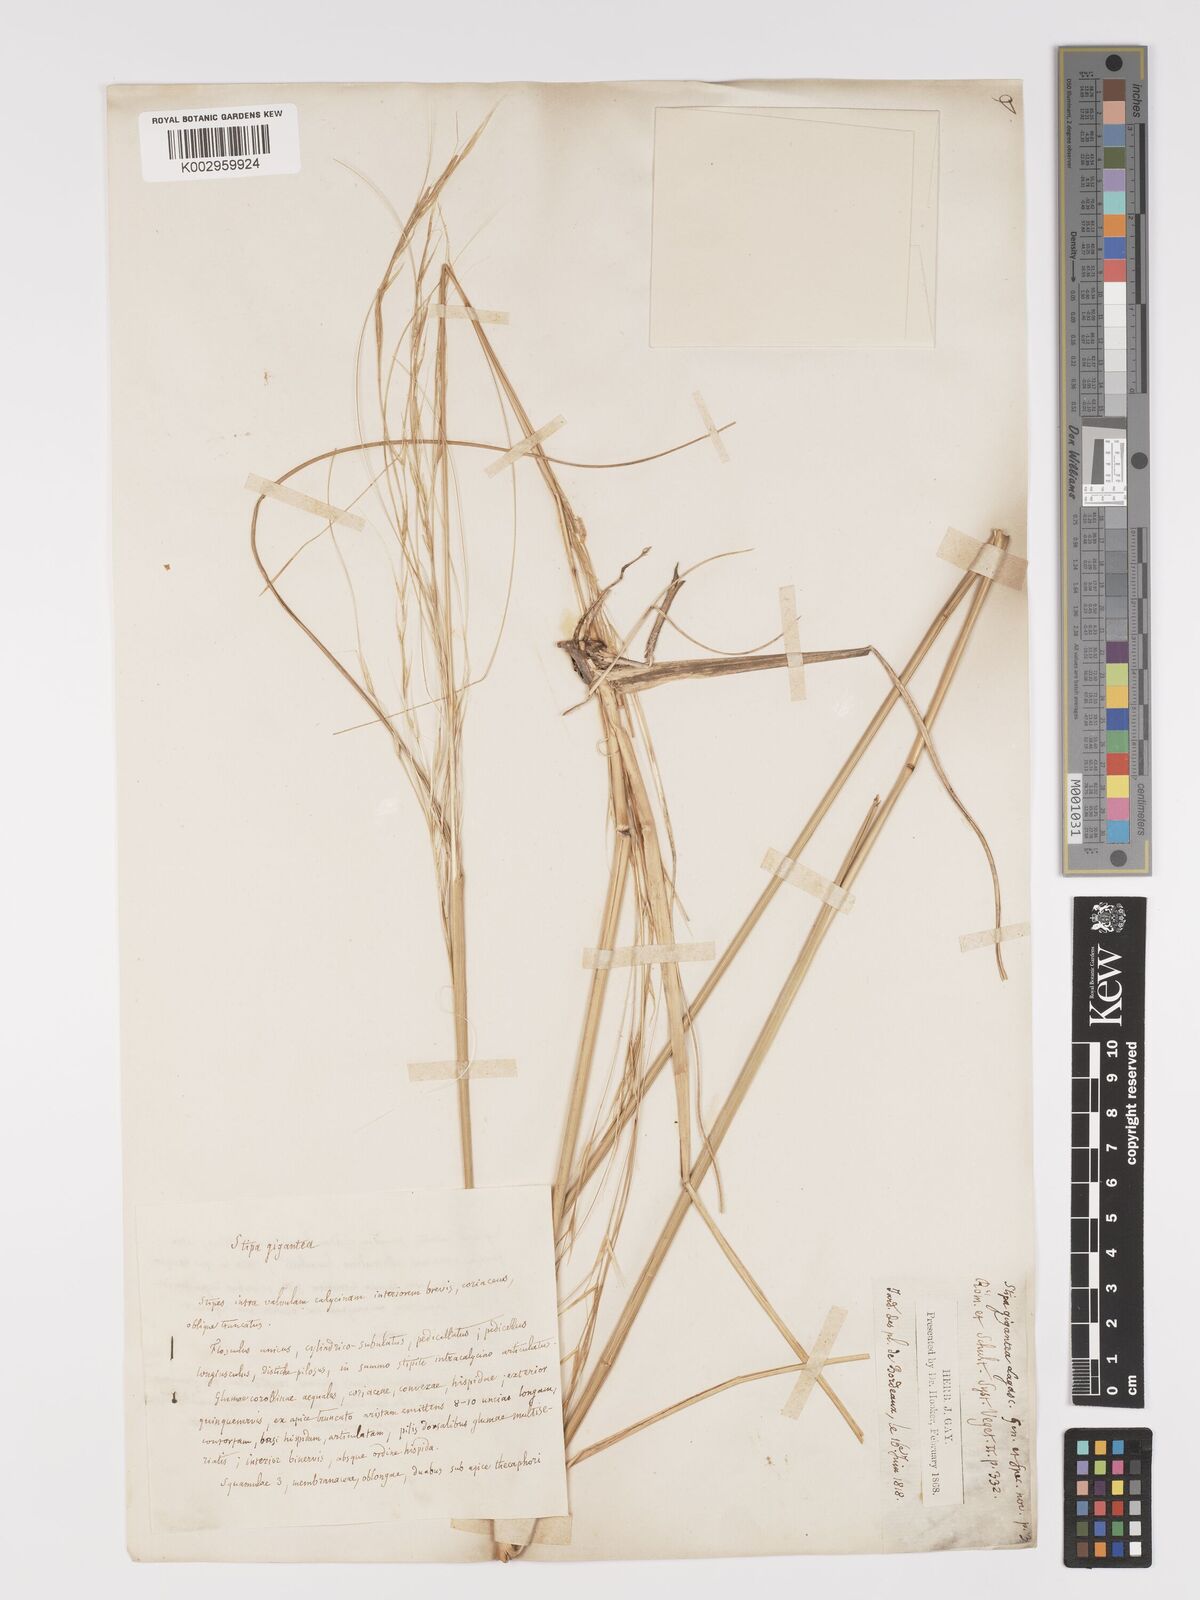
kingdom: Plantae
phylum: Tracheophyta
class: Liliopsida
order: Poales
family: Poaceae
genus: Stipa
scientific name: Stipa
